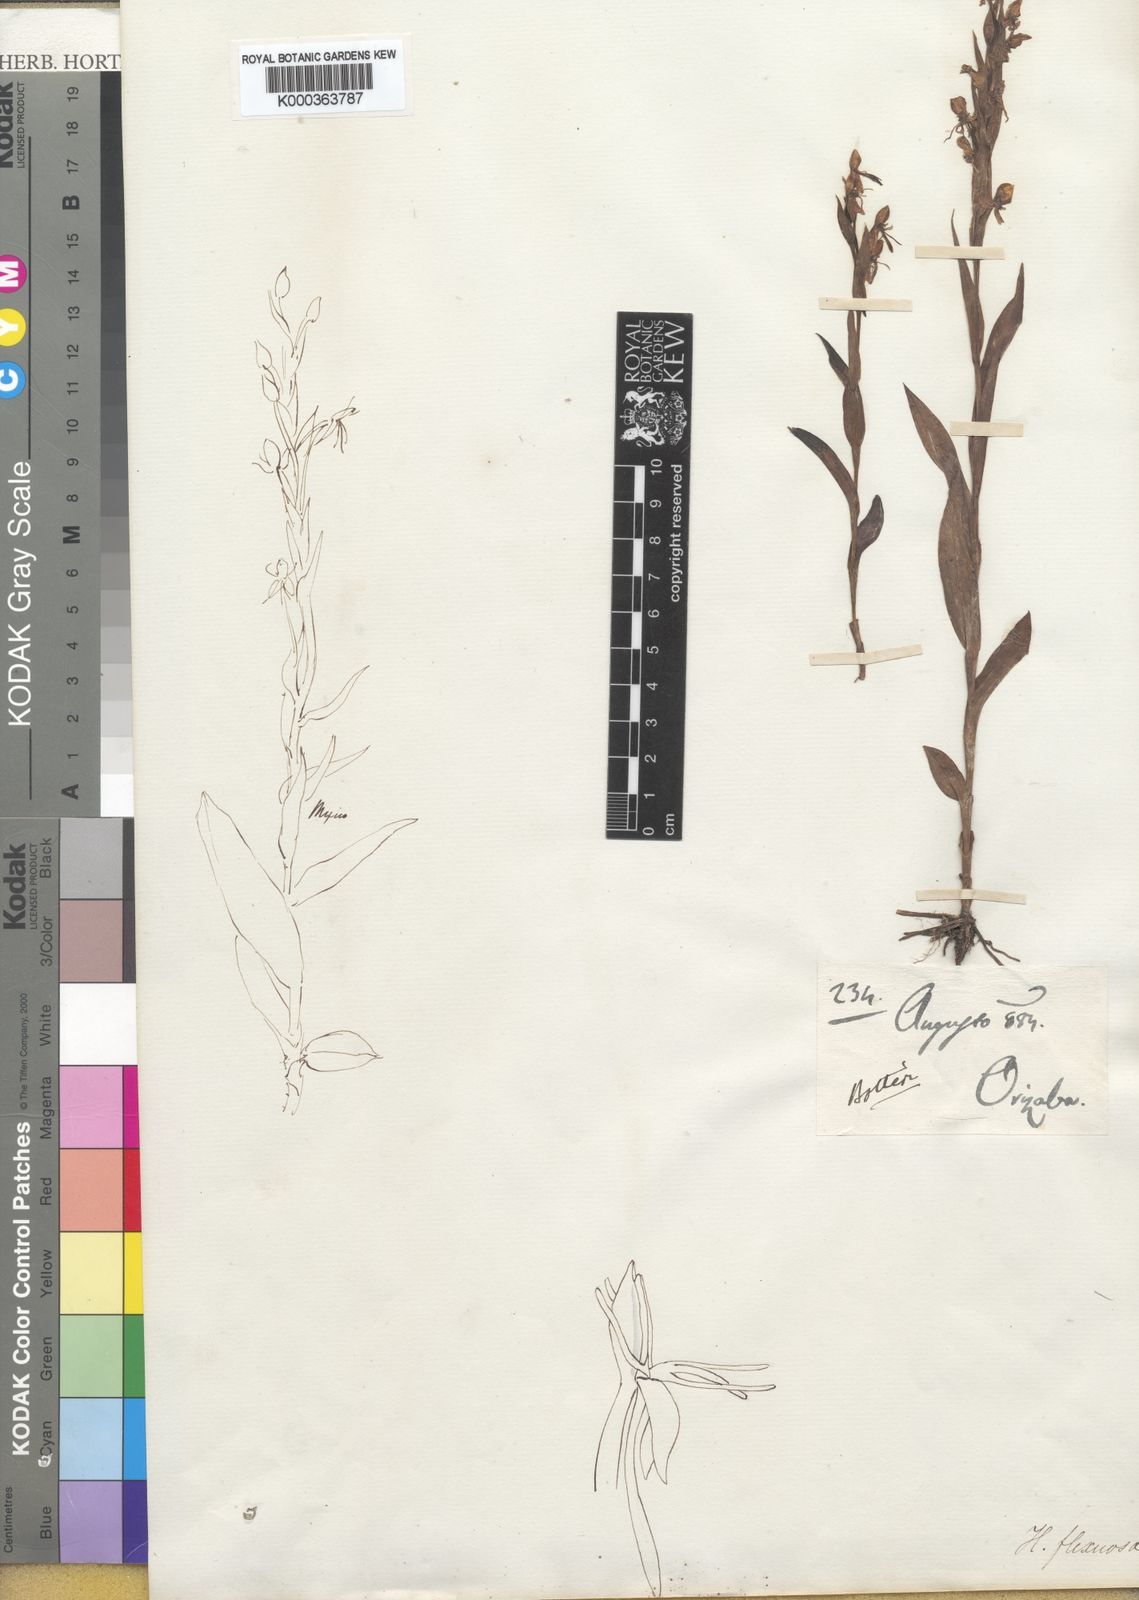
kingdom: Plantae
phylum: Tracheophyta
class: Liliopsida
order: Asparagales
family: Orchidaceae
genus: Habenaria
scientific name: Habenaria flexuosa
